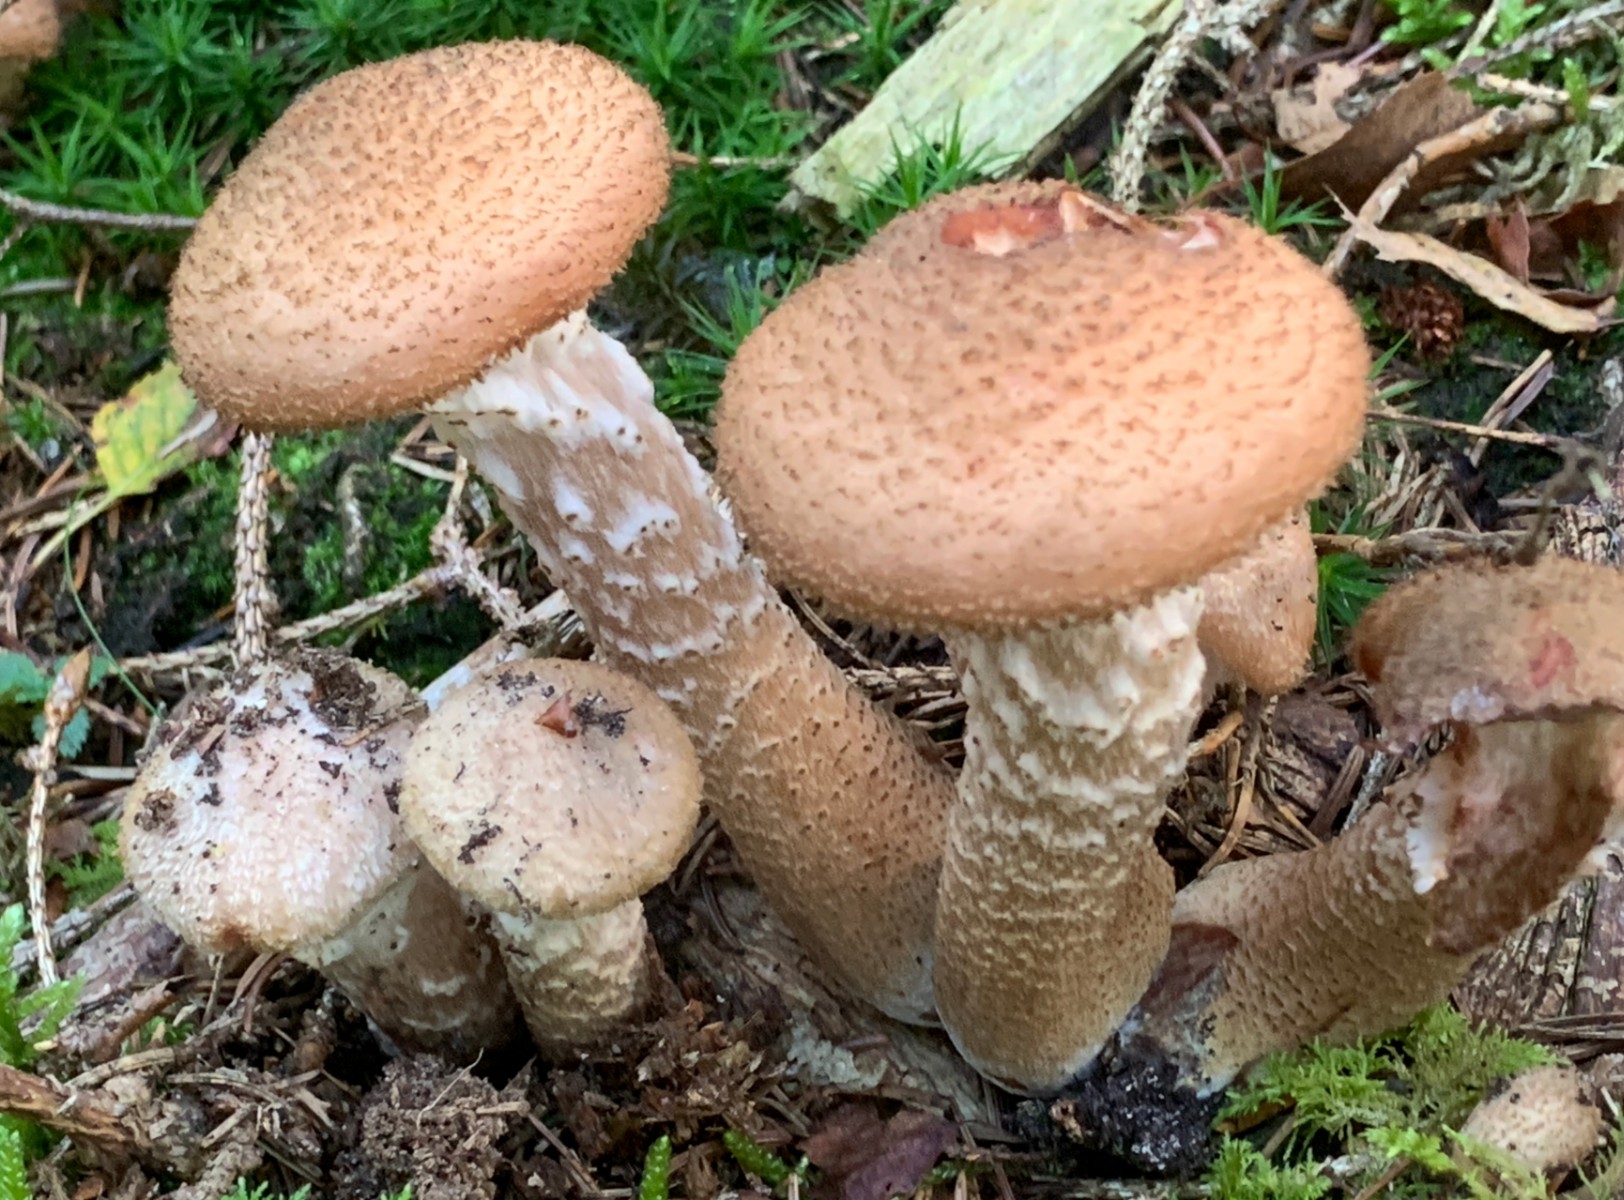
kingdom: Fungi
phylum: Basidiomycota
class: Agaricomycetes
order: Agaricales
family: Physalacriaceae
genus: Armillaria
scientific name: Armillaria ostoyae
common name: mørk honningsvamp
